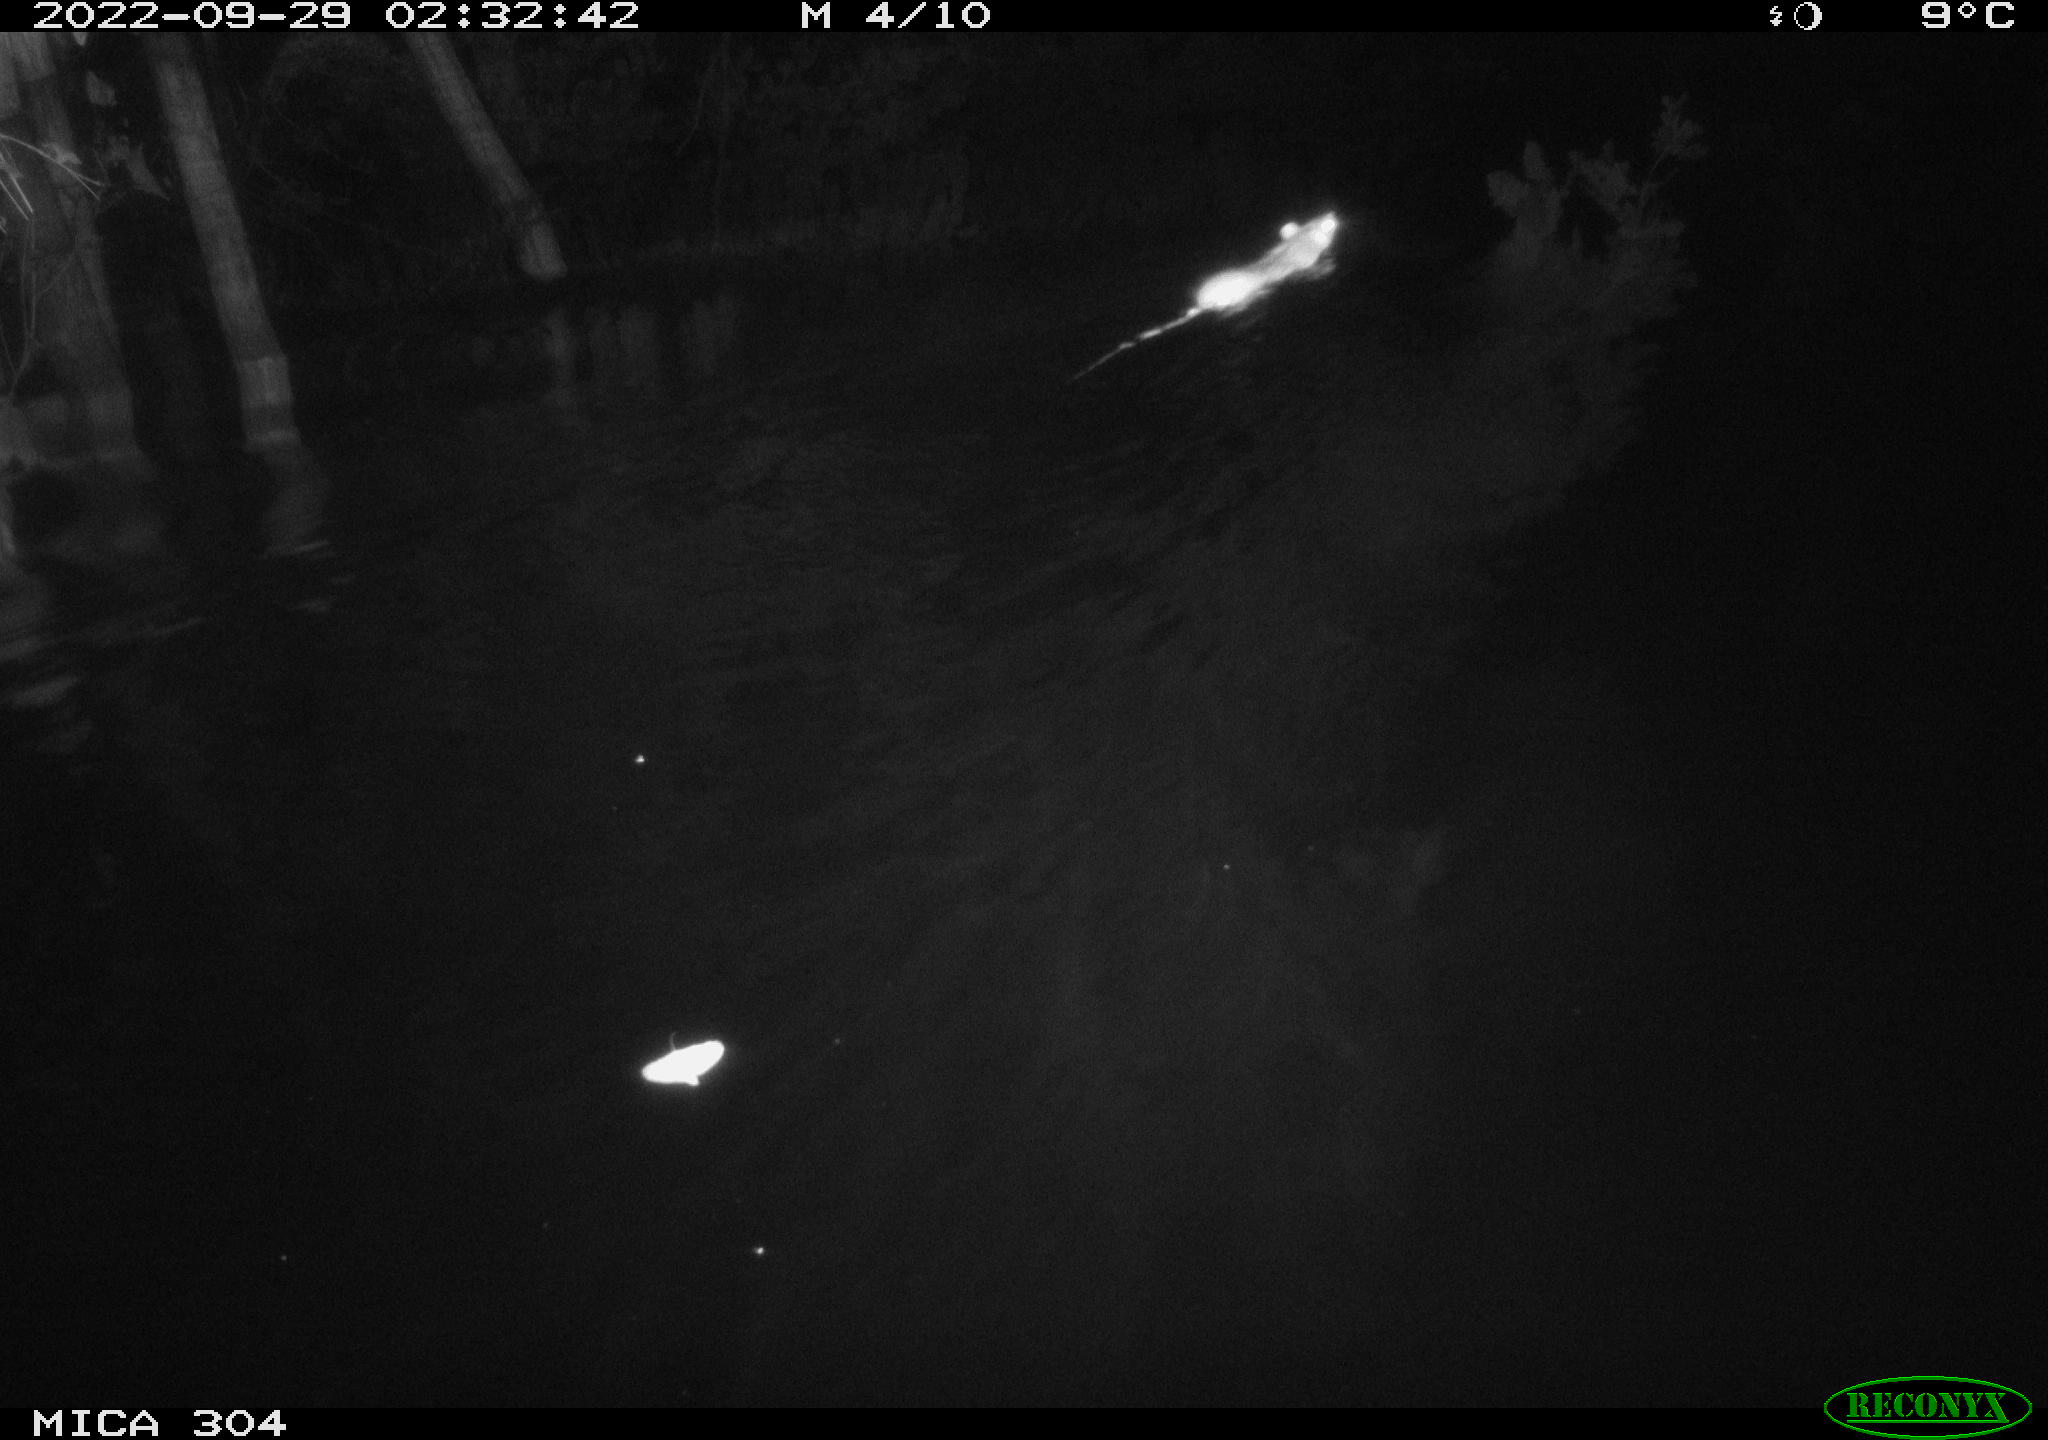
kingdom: Animalia
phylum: Chordata
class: Mammalia
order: Rodentia
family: Muridae
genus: Rattus
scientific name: Rattus norvegicus
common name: Brown rat
